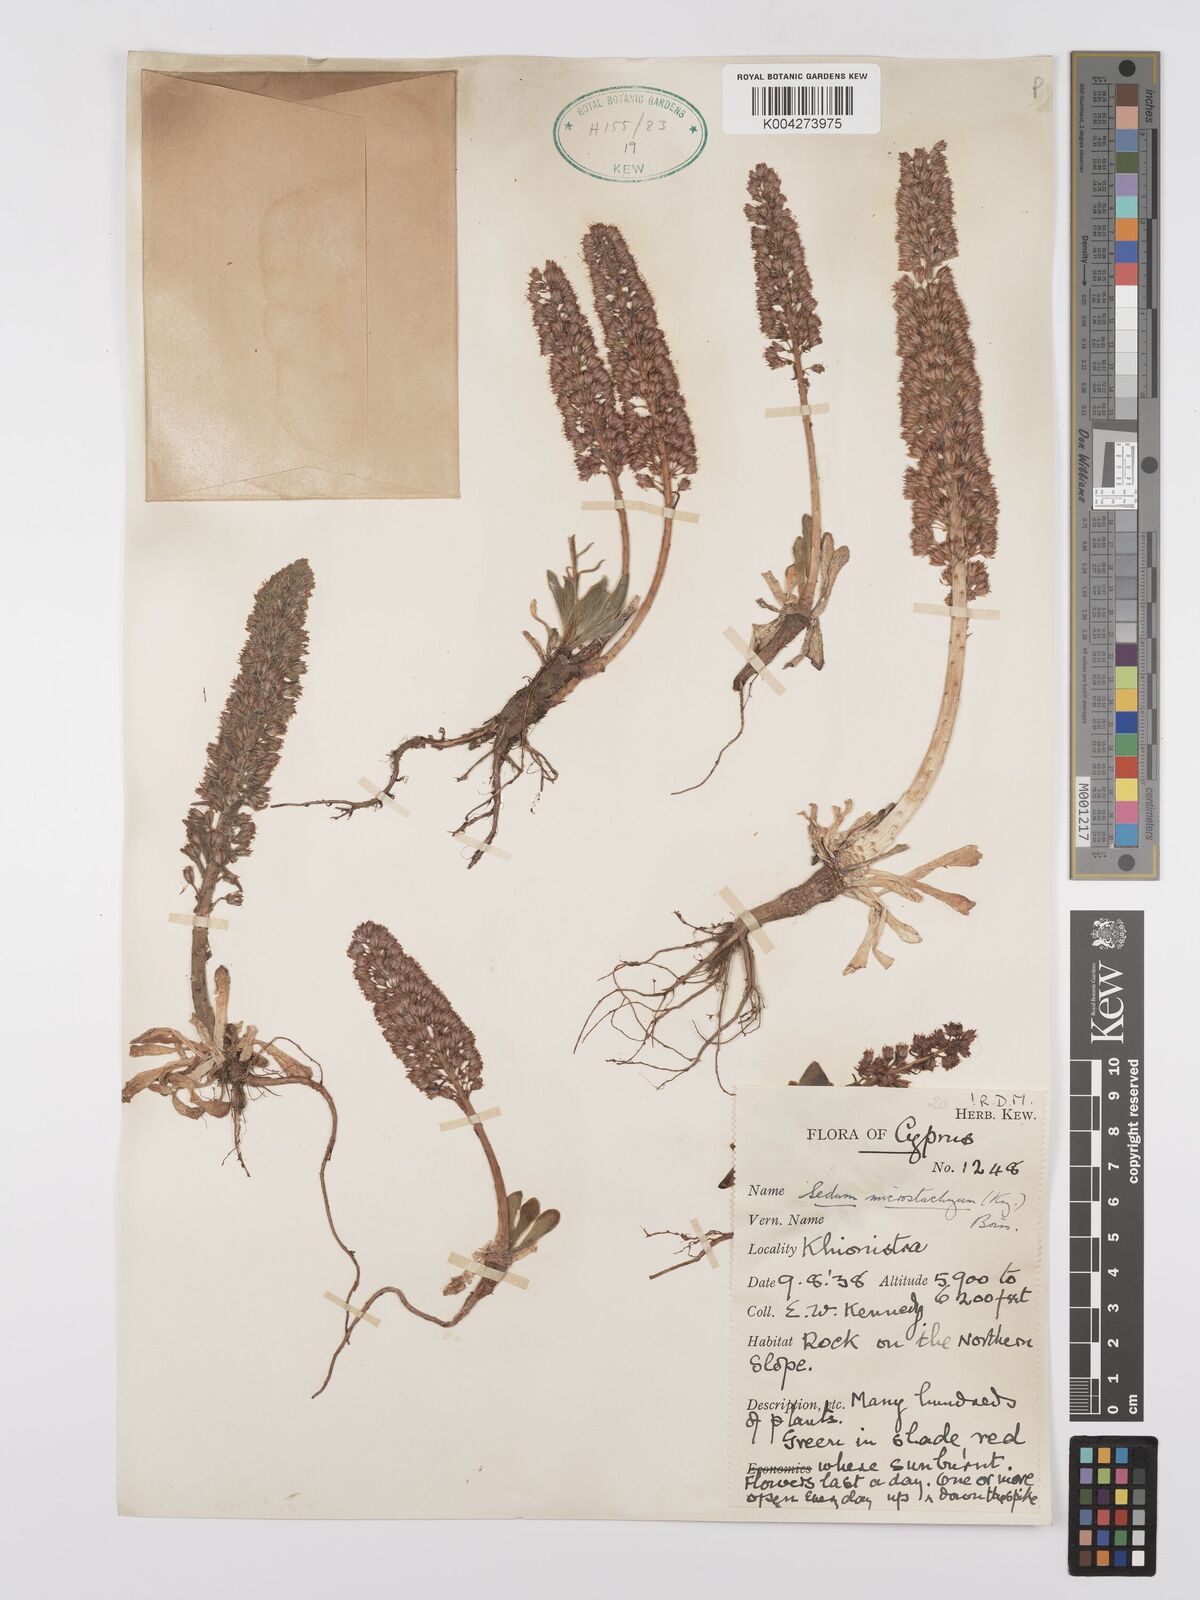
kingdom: Plantae
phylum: Tracheophyta
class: Magnoliopsida
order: Saxifragales
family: Crassulaceae
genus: Sedum
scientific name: Sedum microstachyum
